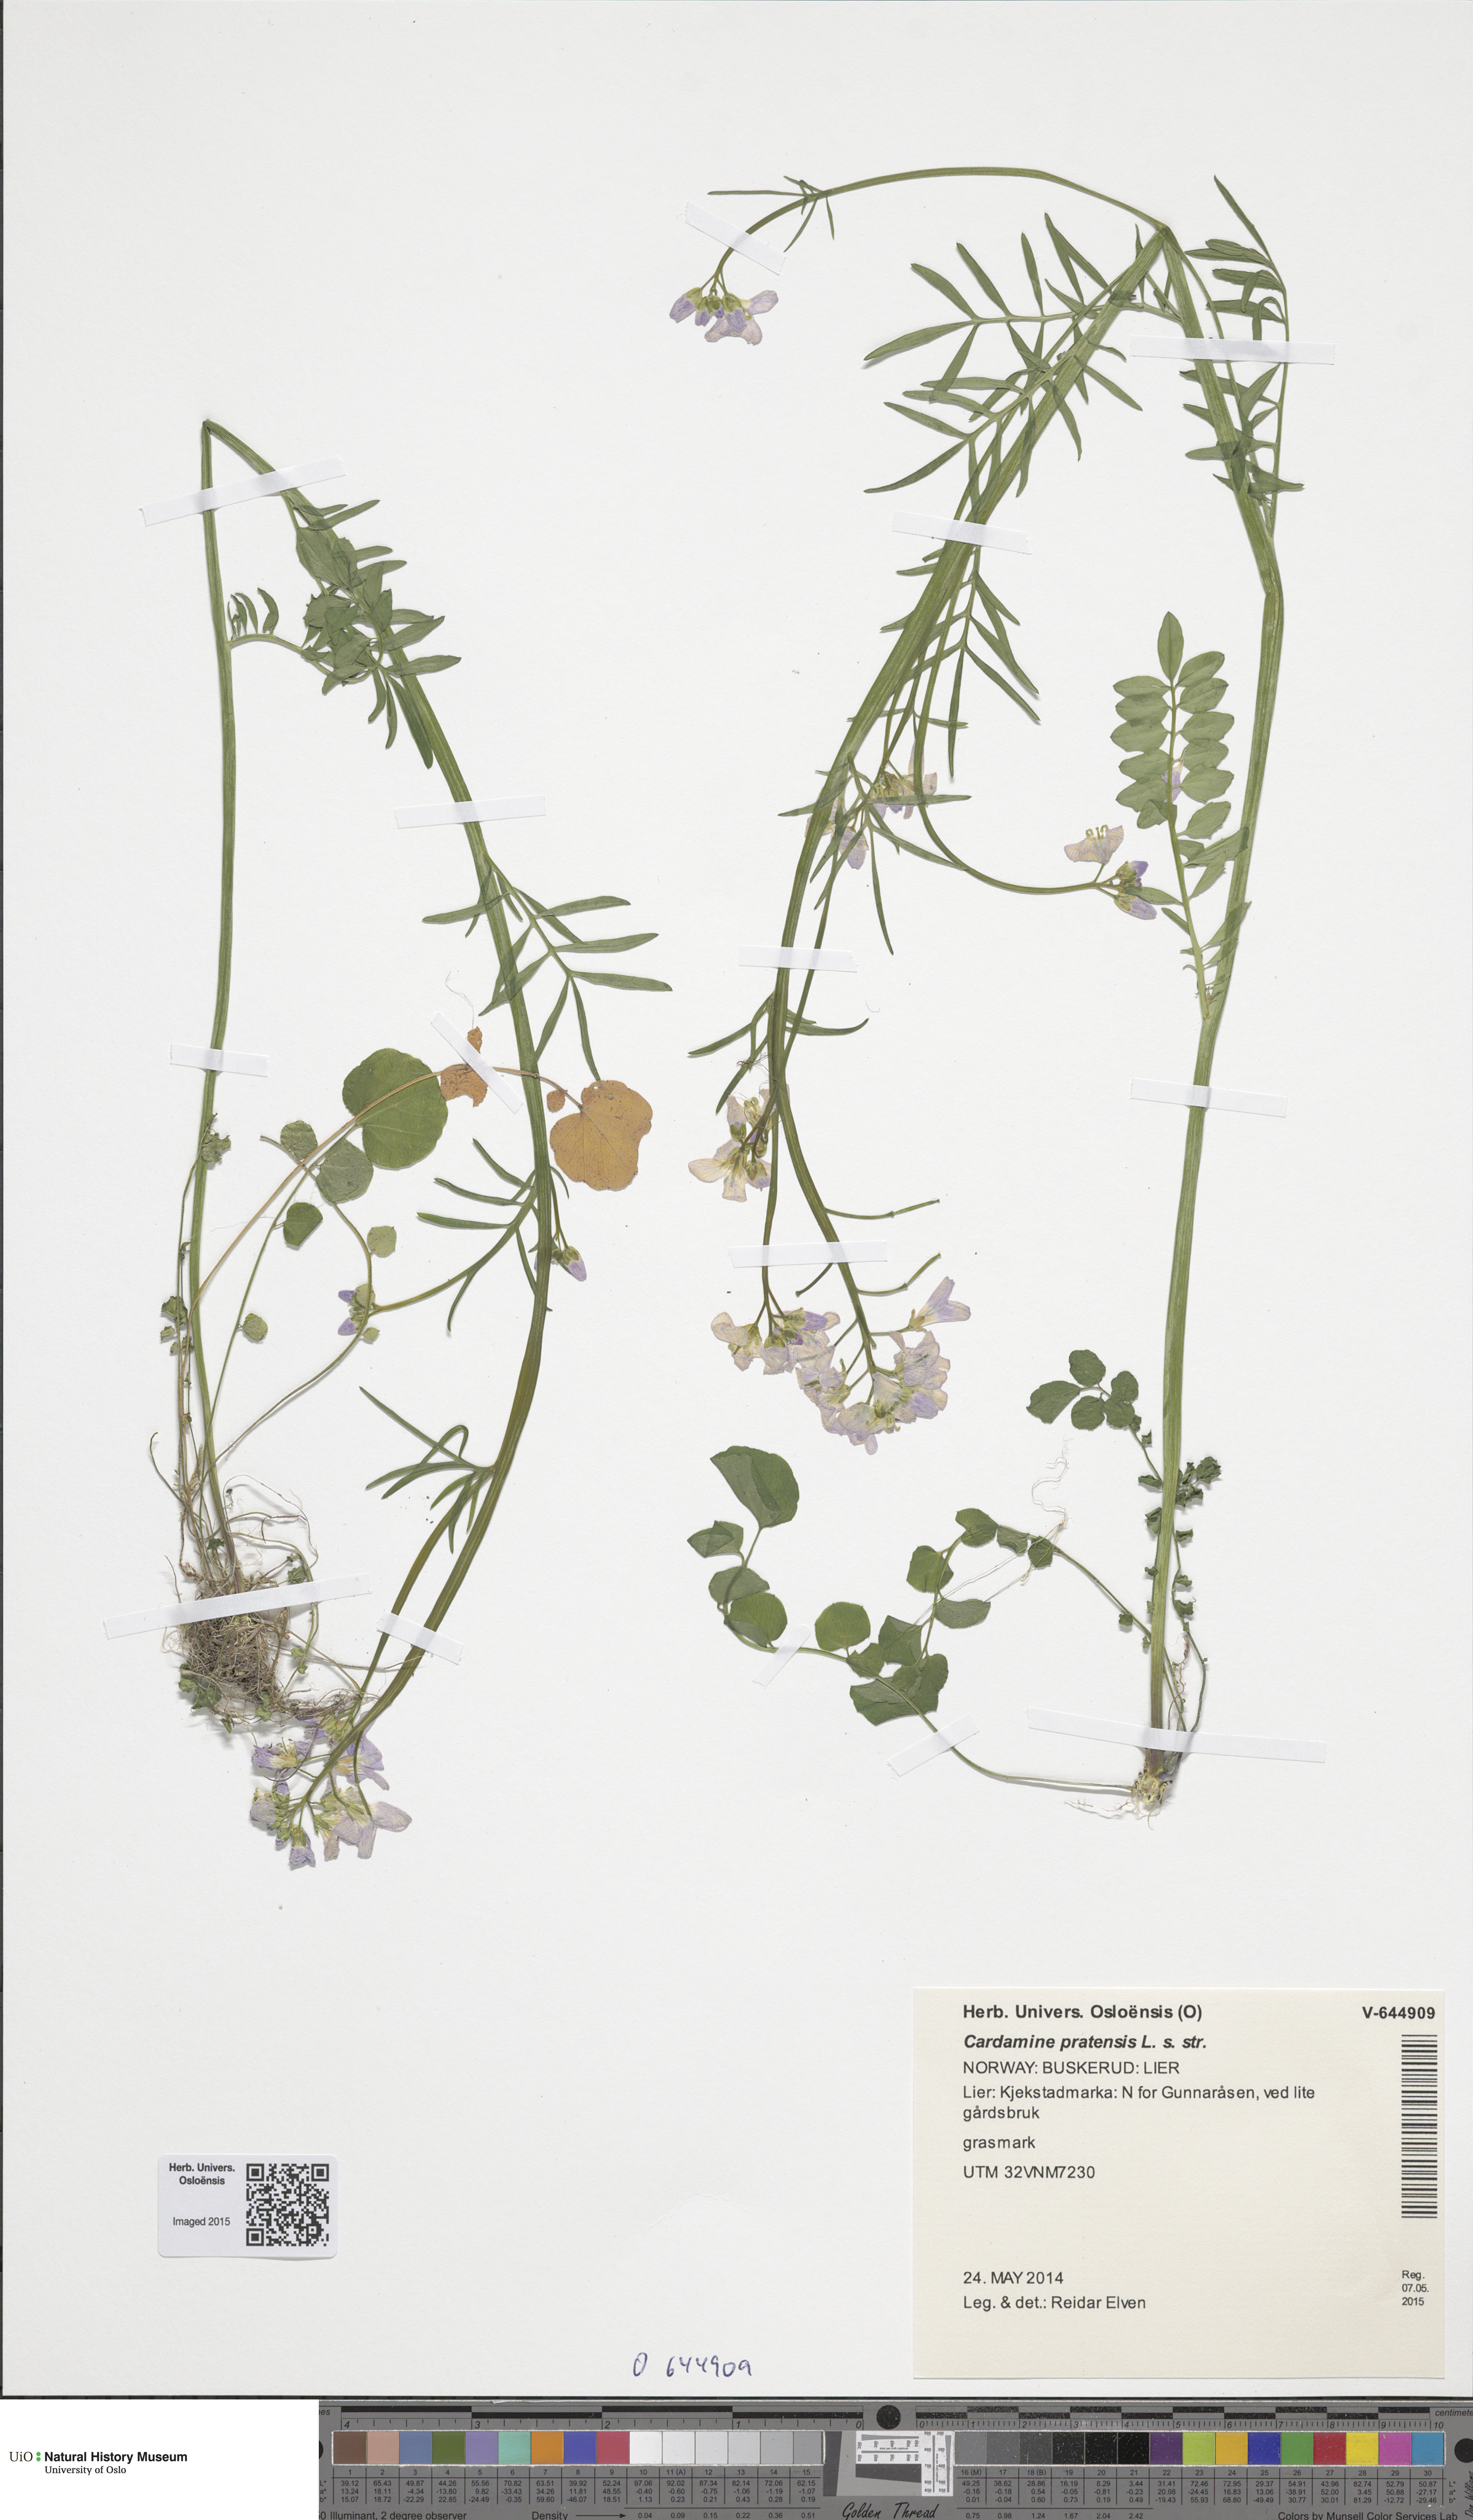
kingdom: Plantae
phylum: Tracheophyta
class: Magnoliopsida
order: Brassicales
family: Brassicaceae
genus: Cardamine
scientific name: Cardamine pratensis
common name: Cuckoo flower
